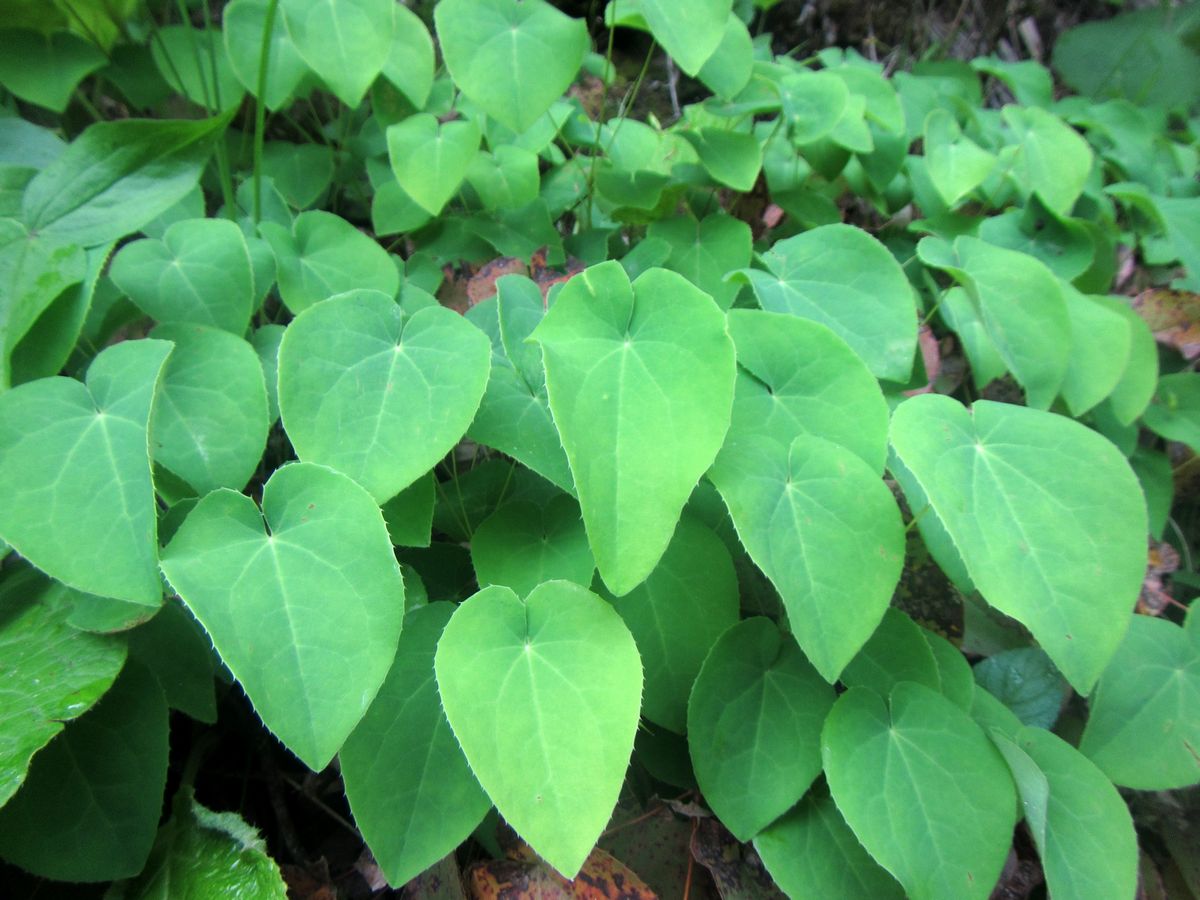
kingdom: Plantae
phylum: Tracheophyta
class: Magnoliopsida
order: Ranunculales
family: Berberidaceae
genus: Epimedium
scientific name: Epimedium pinnatum
